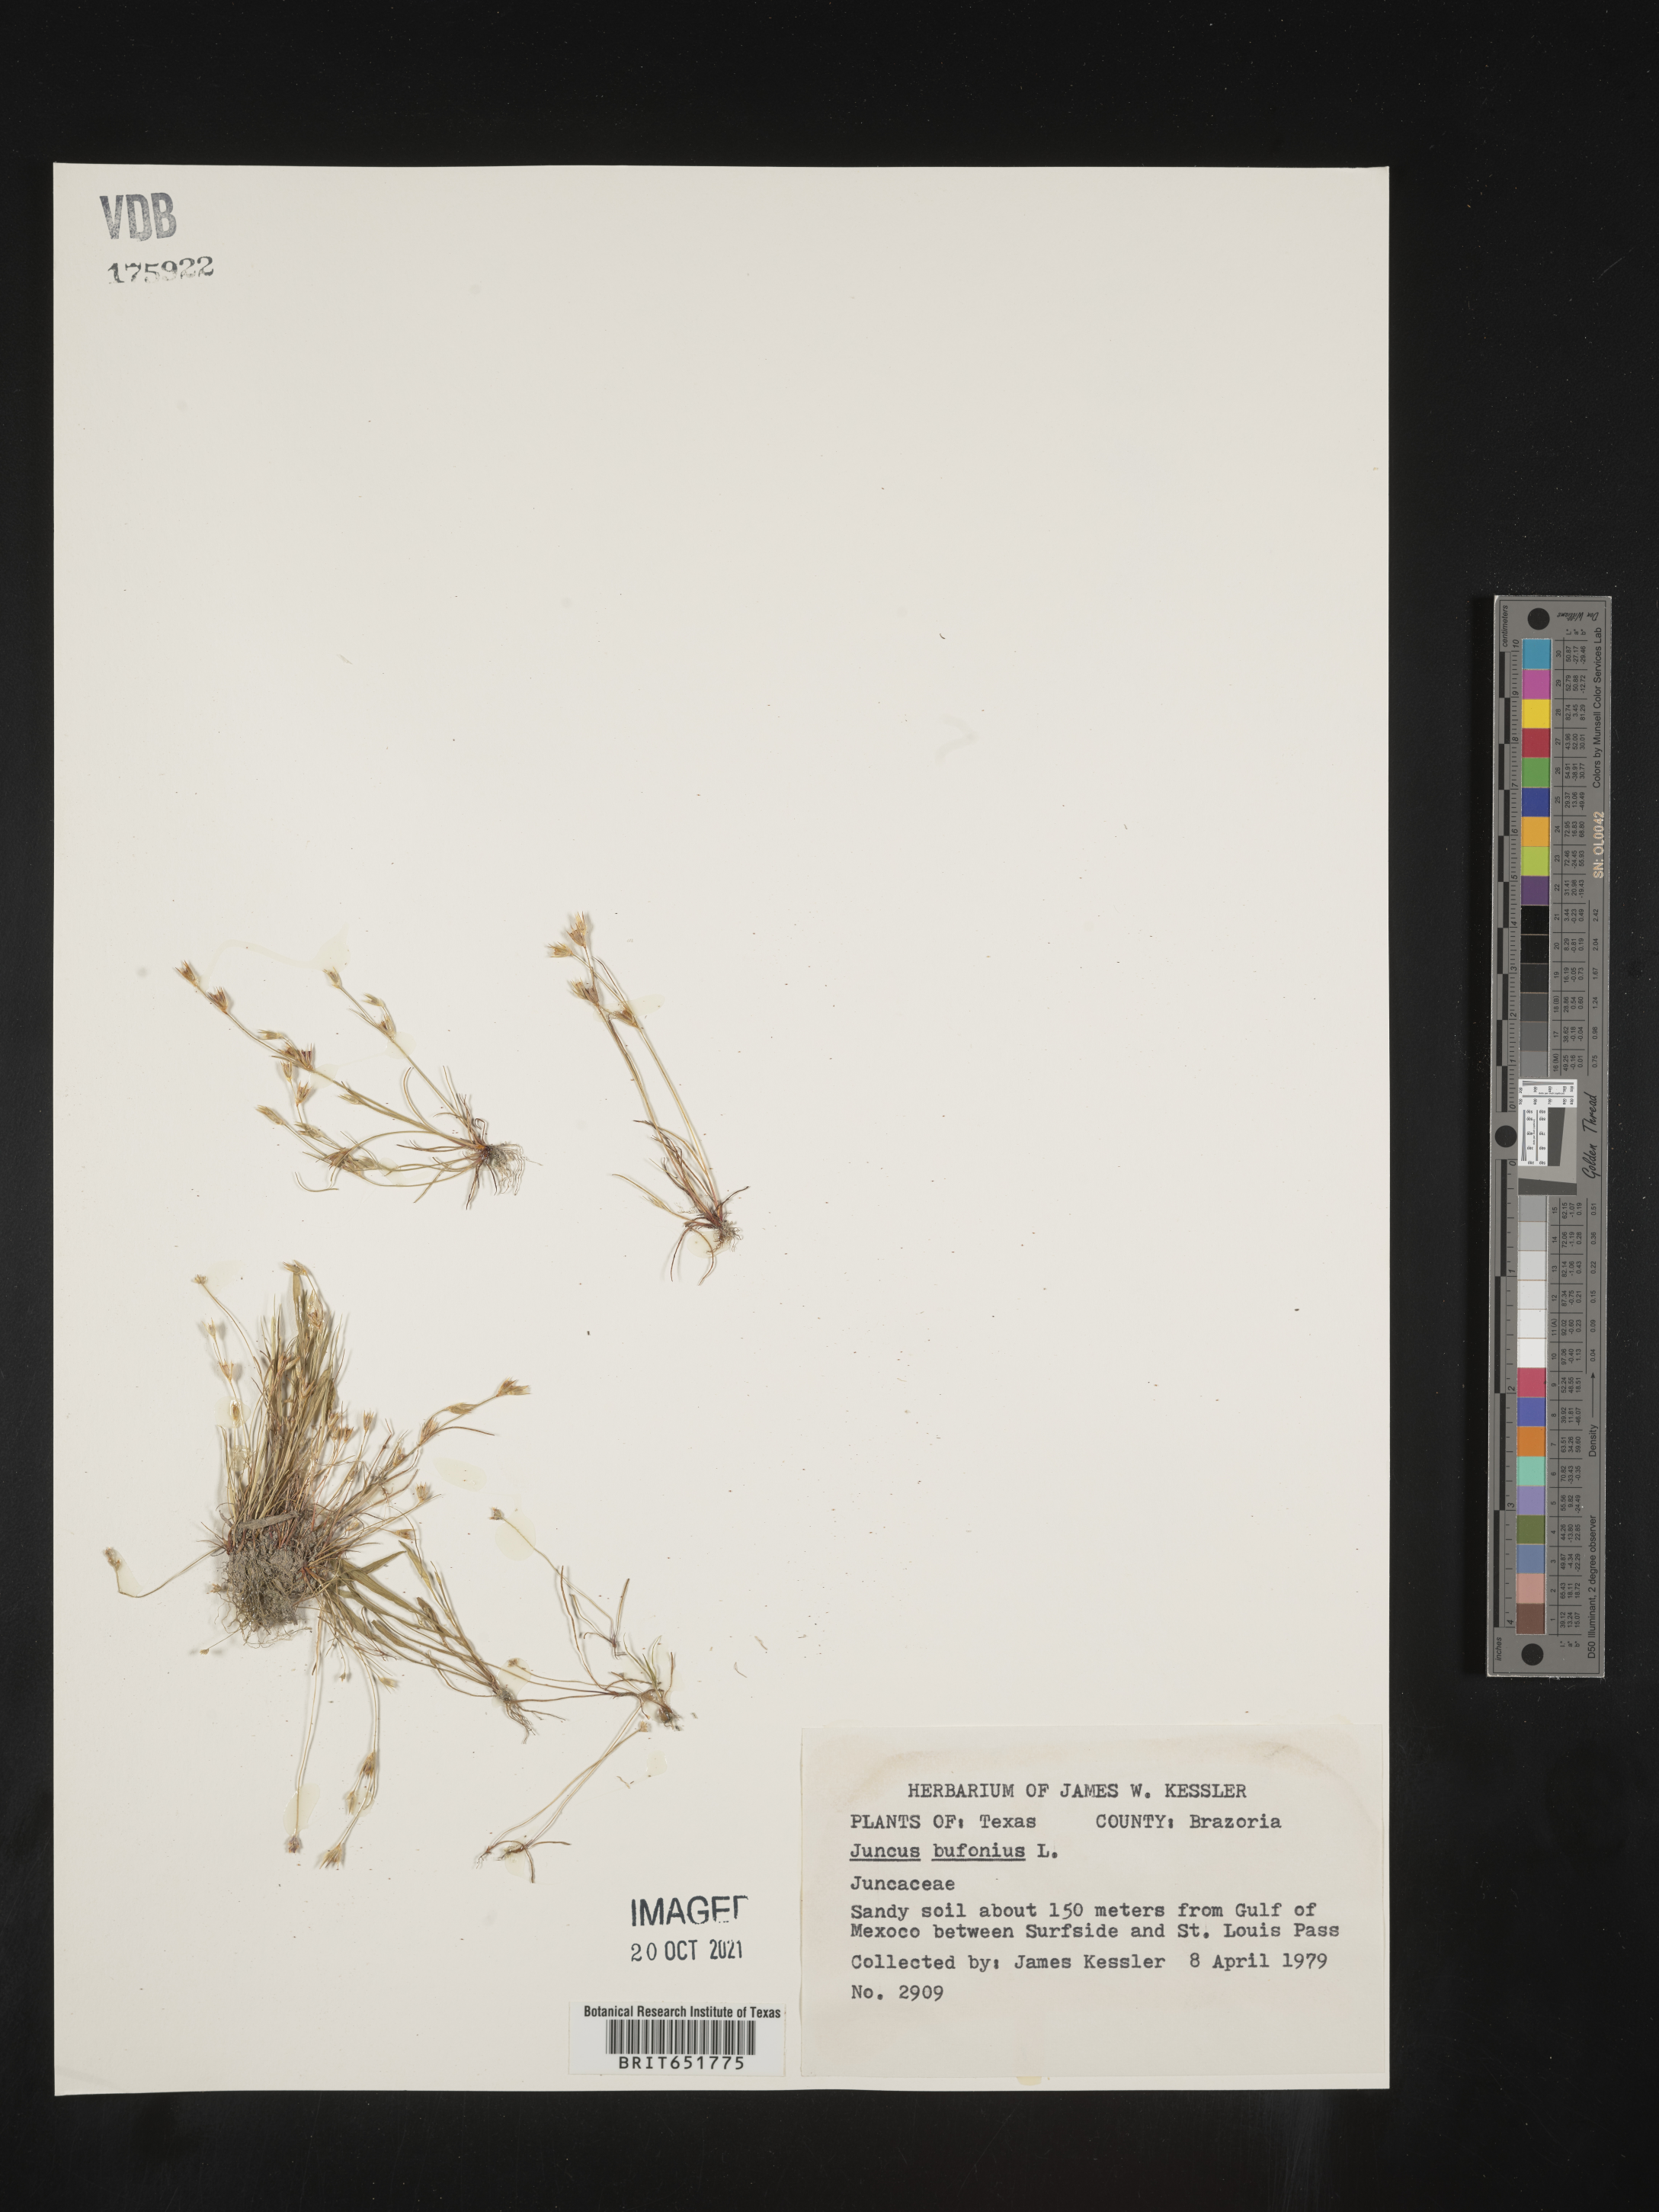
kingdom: Plantae
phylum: Tracheophyta
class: Liliopsida
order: Poales
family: Juncaceae
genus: Juncus
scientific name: Juncus bufonius
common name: Toad rush
